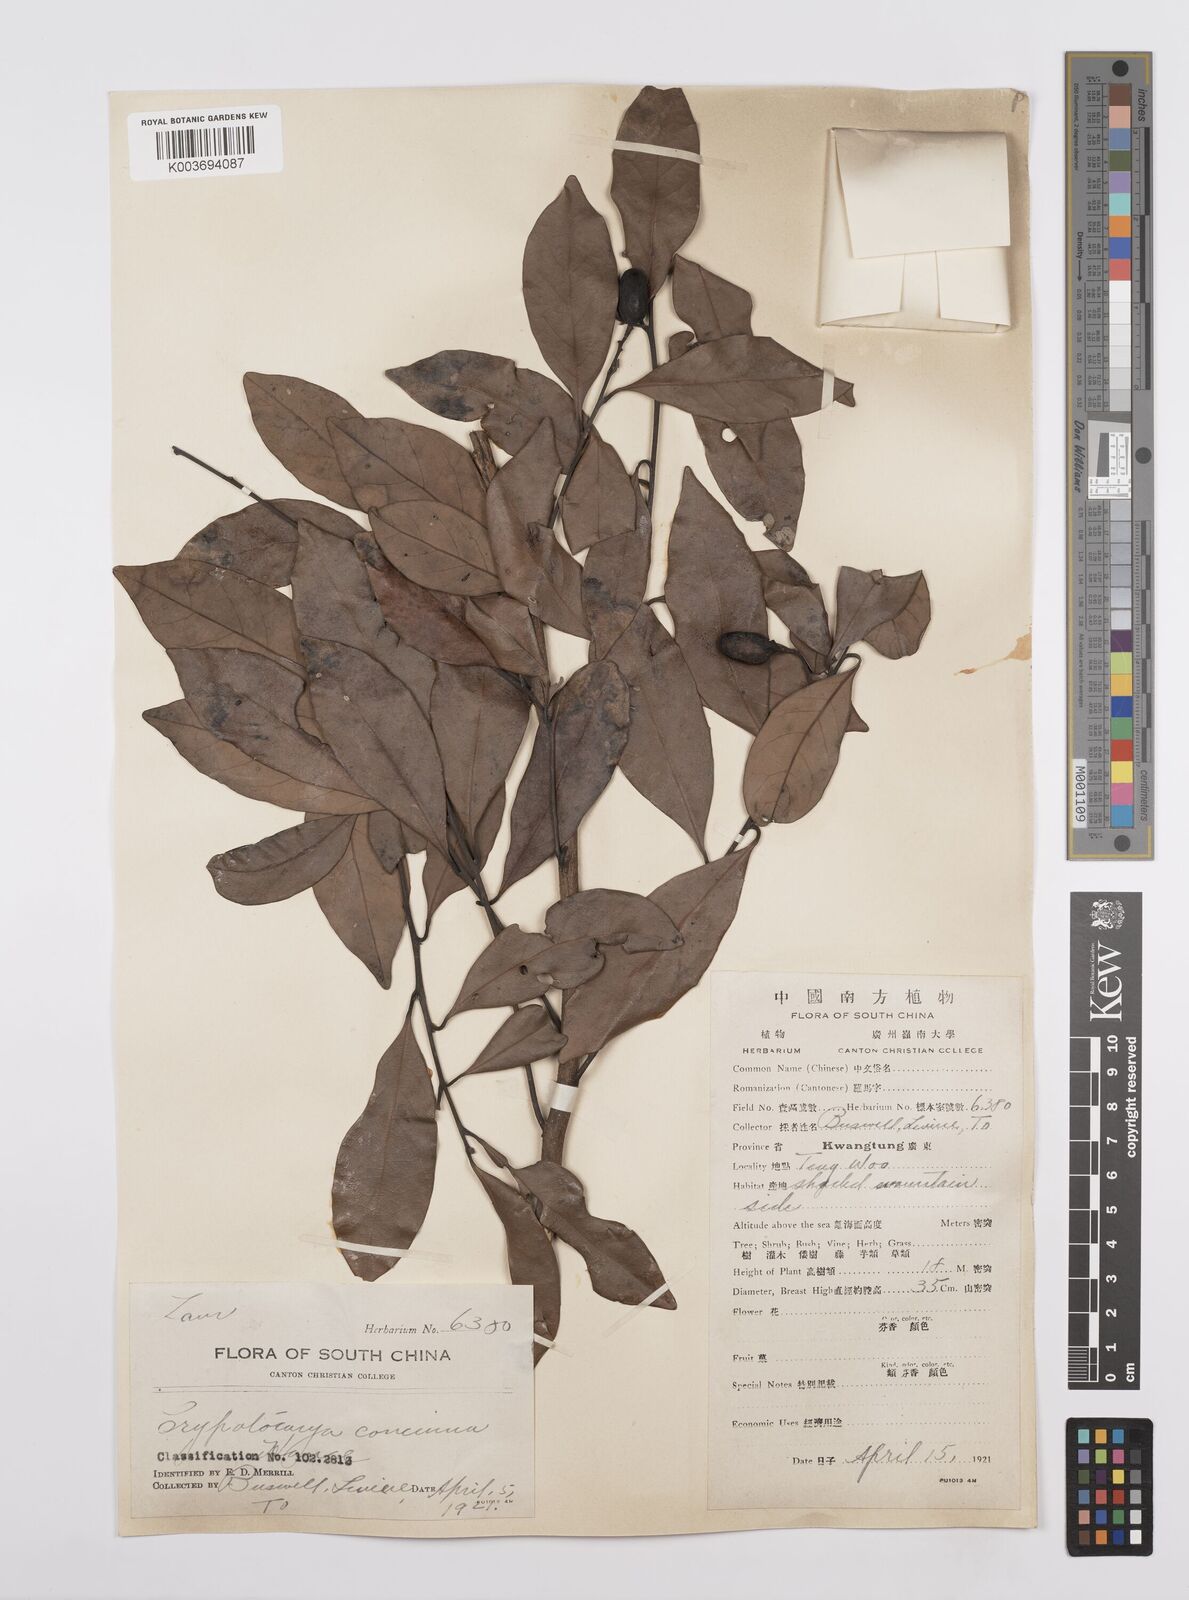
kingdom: Plantae
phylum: Tracheophyta
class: Magnoliopsida
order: Laurales
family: Lauraceae
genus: Cryptocarya
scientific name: Cryptocarya concinna
